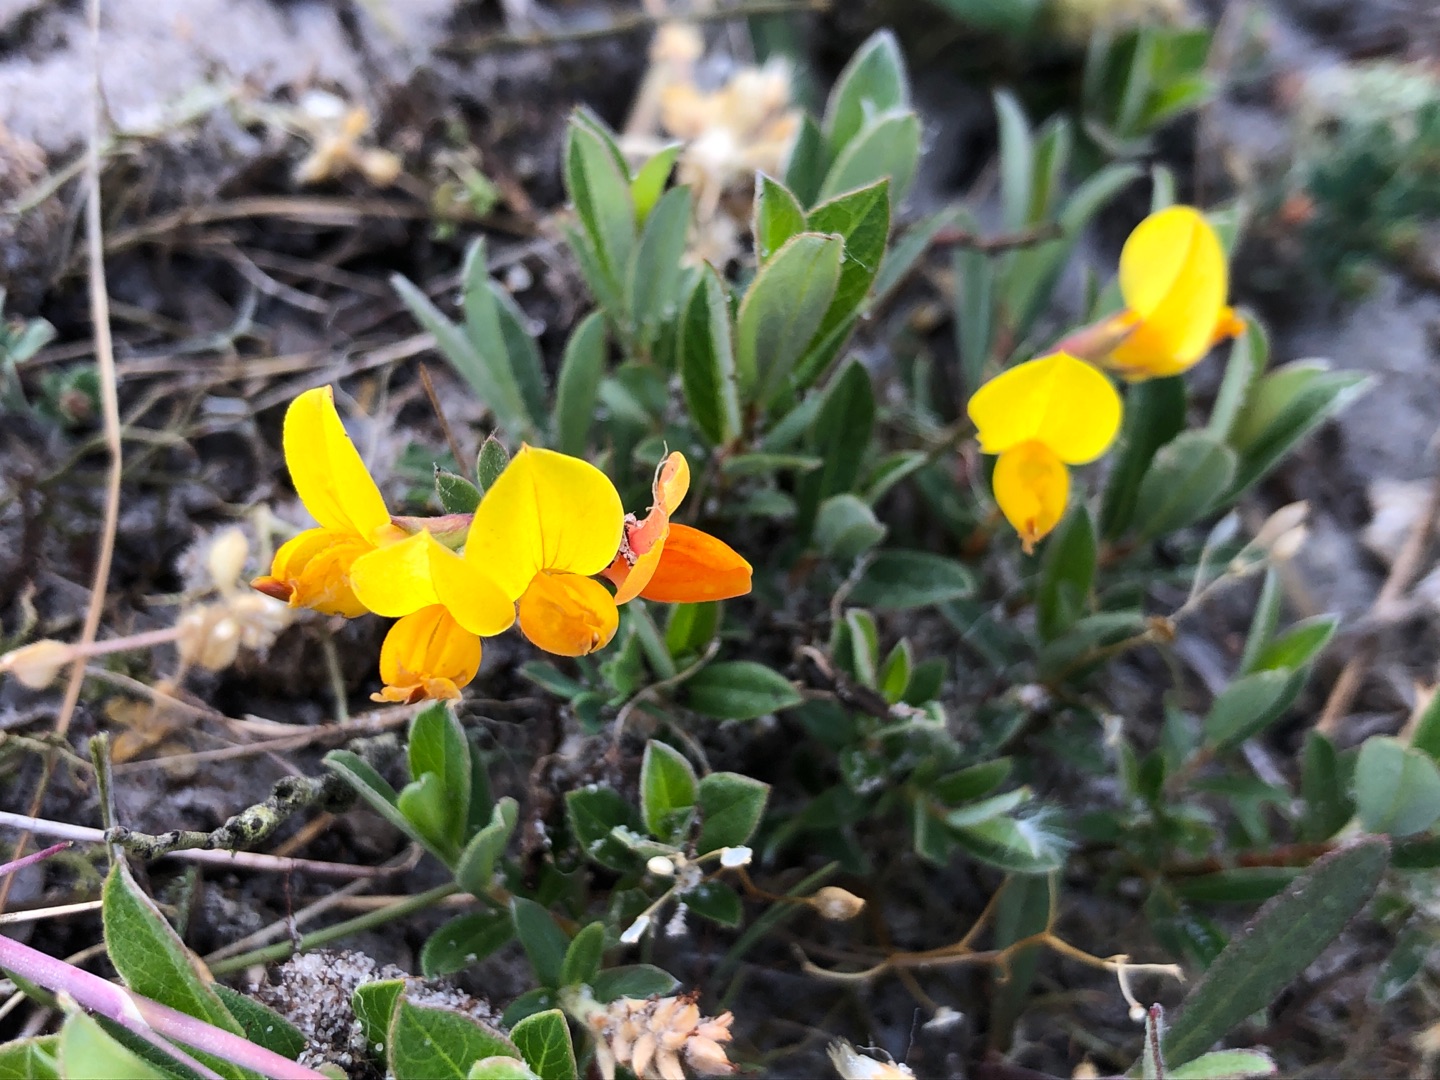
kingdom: Plantae
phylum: Tracheophyta
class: Magnoliopsida
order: Fabales
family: Fabaceae
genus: Lotus
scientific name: Lotus corniculatus
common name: Almindelig kællingetand
